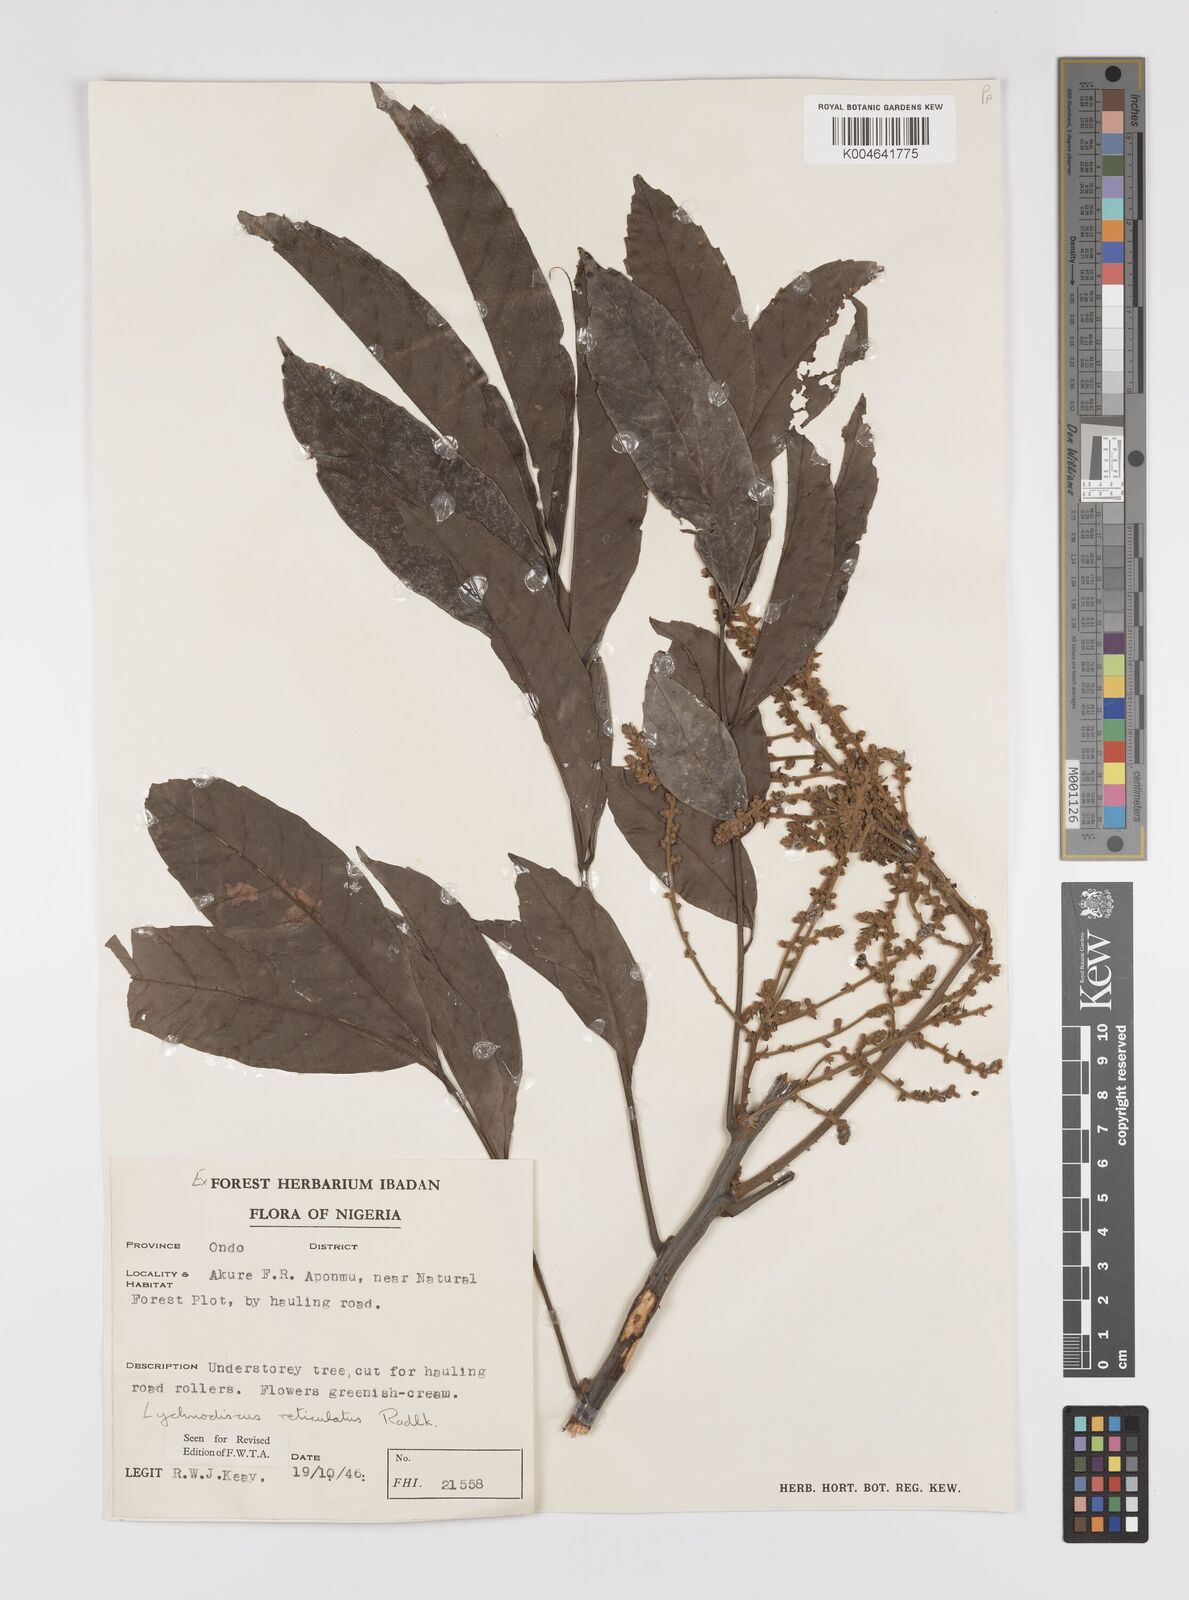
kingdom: Plantae
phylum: Tracheophyta
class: Magnoliopsida
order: Sapindales
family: Sapindaceae
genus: Lychnodiscus
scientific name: Lychnodiscus reticulatus
